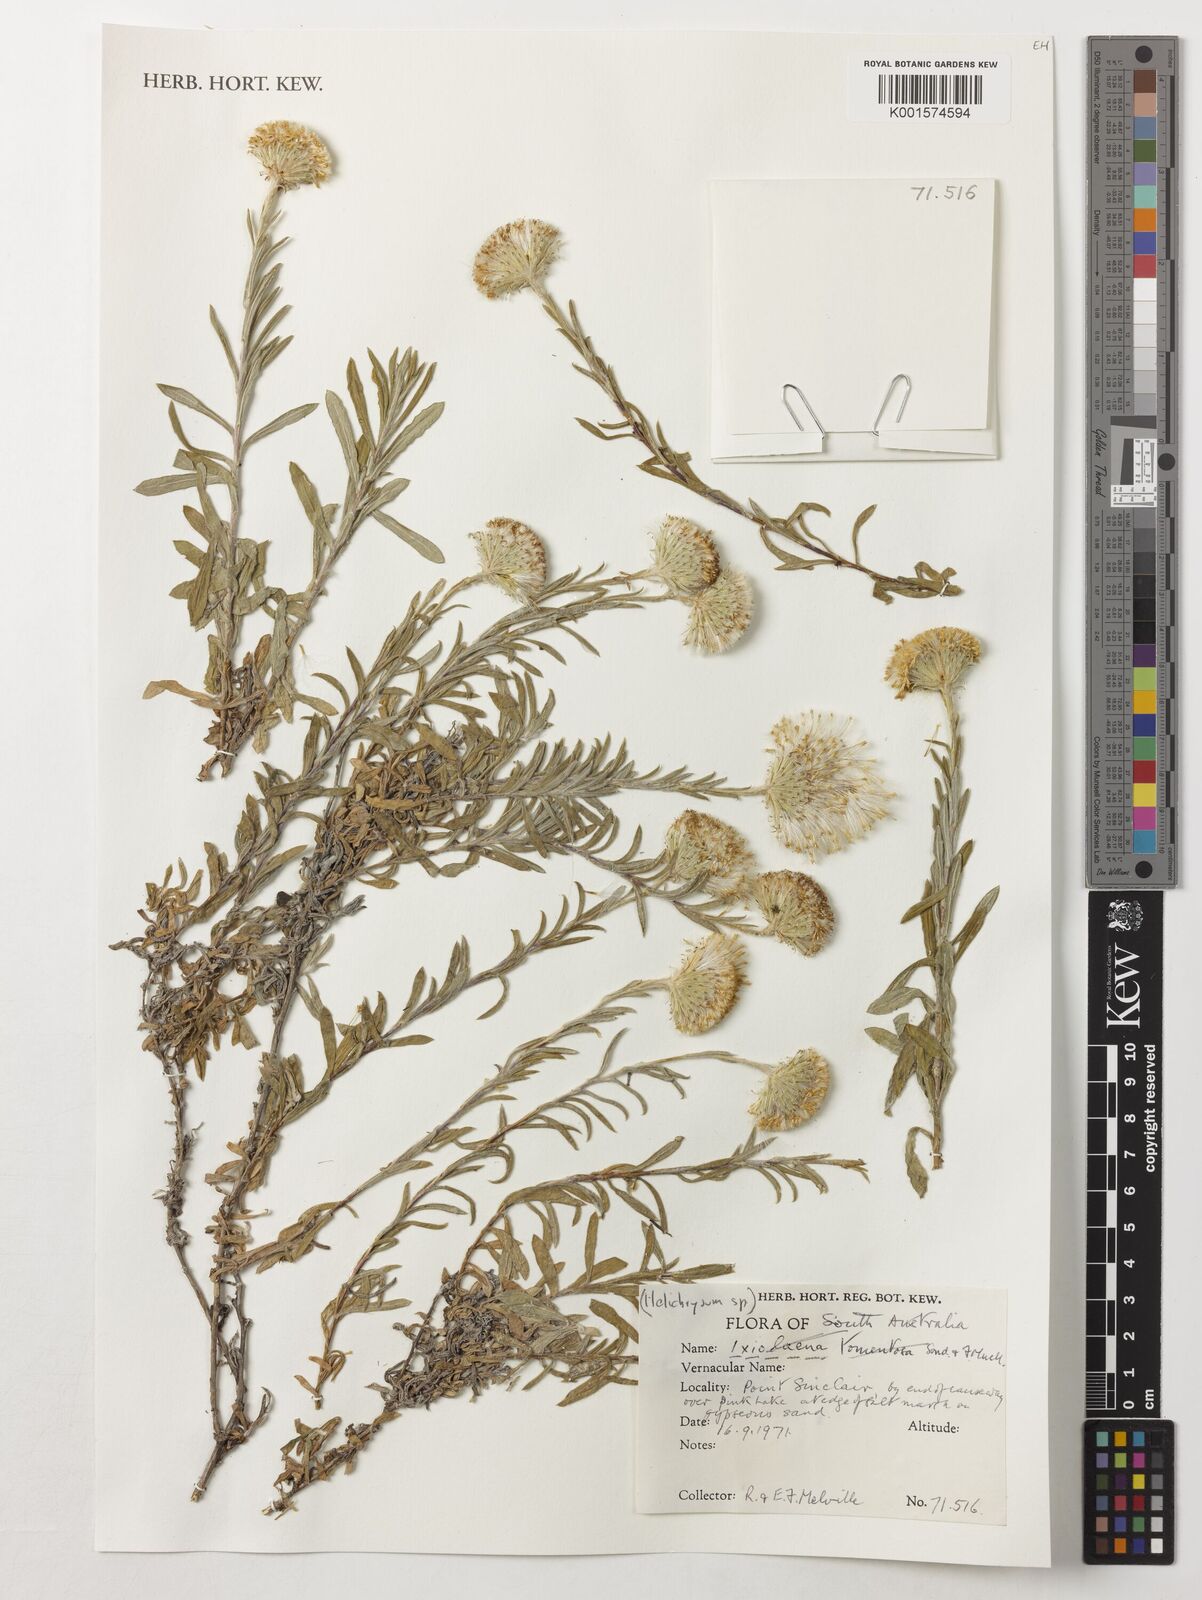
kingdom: Plantae
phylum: Tracheophyta
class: Magnoliopsida
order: Asterales
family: Asteraceae
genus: Helichrysum
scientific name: Helichrysum
